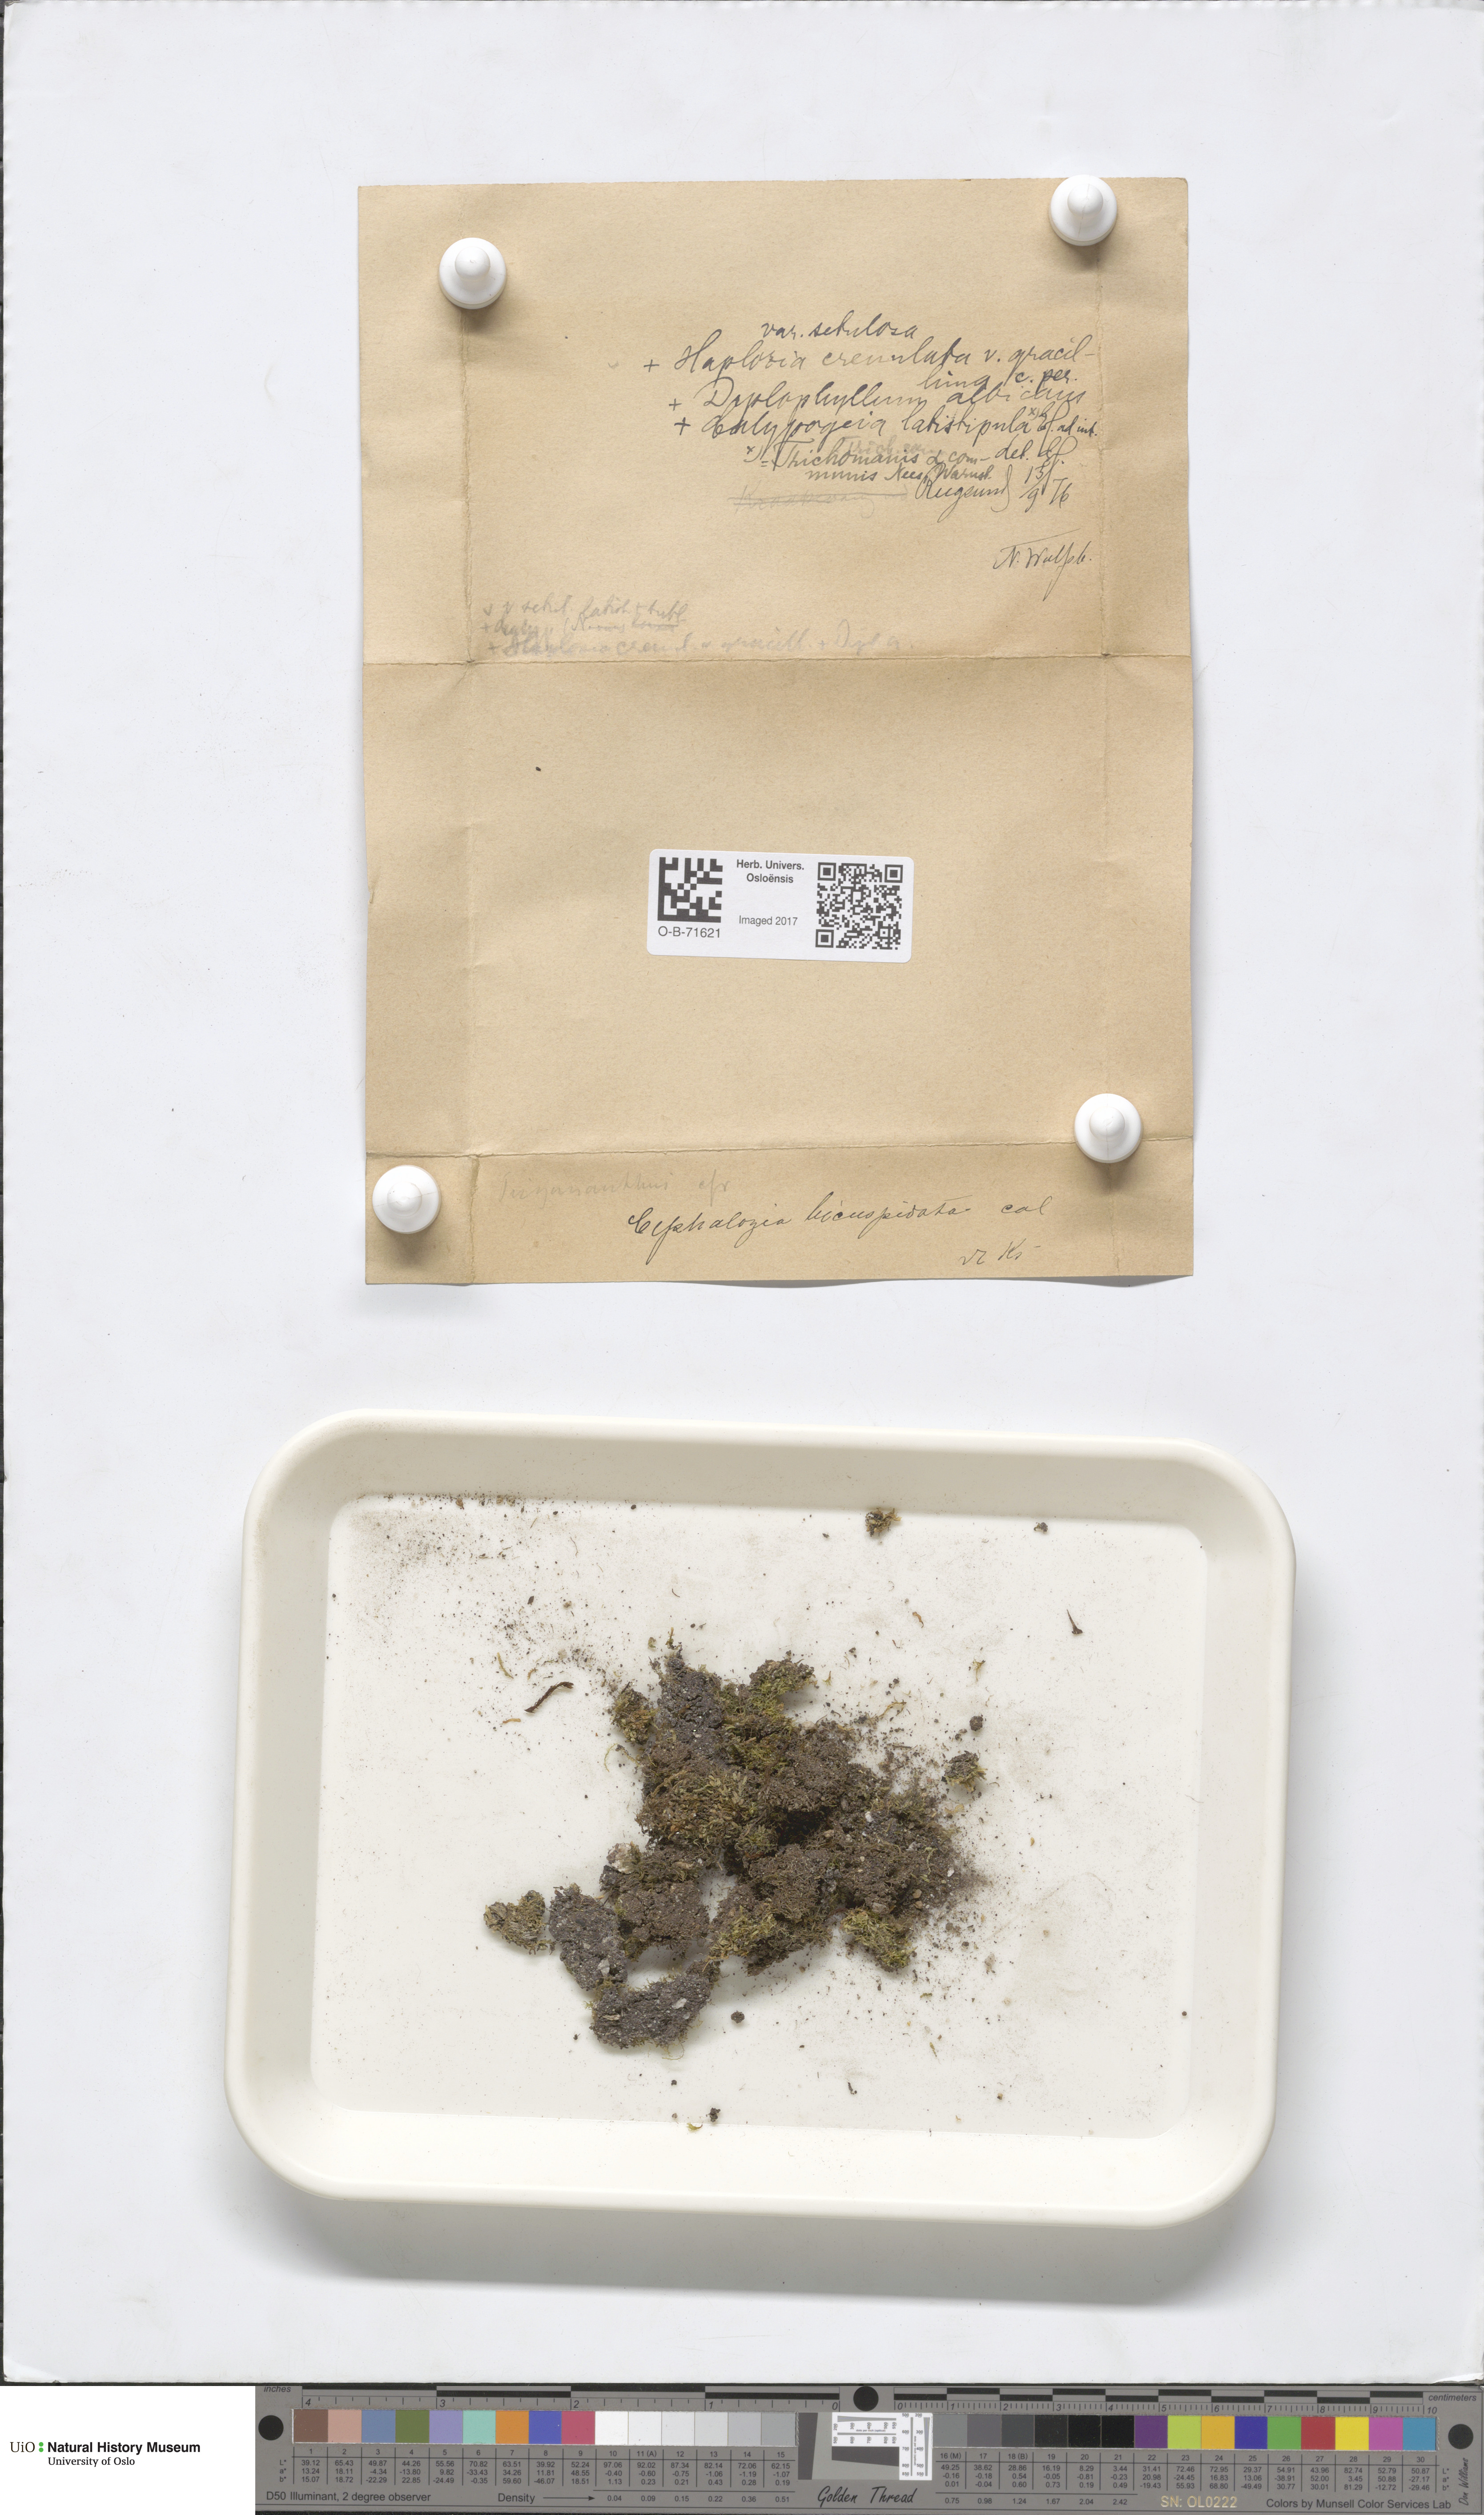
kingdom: Plantae
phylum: Marchantiophyta
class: Jungermanniopsida
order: Jungermanniales
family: Cephaloziaceae
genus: Cephalozia
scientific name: Cephalozia bicuspidata
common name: Two-horned pincerwort
